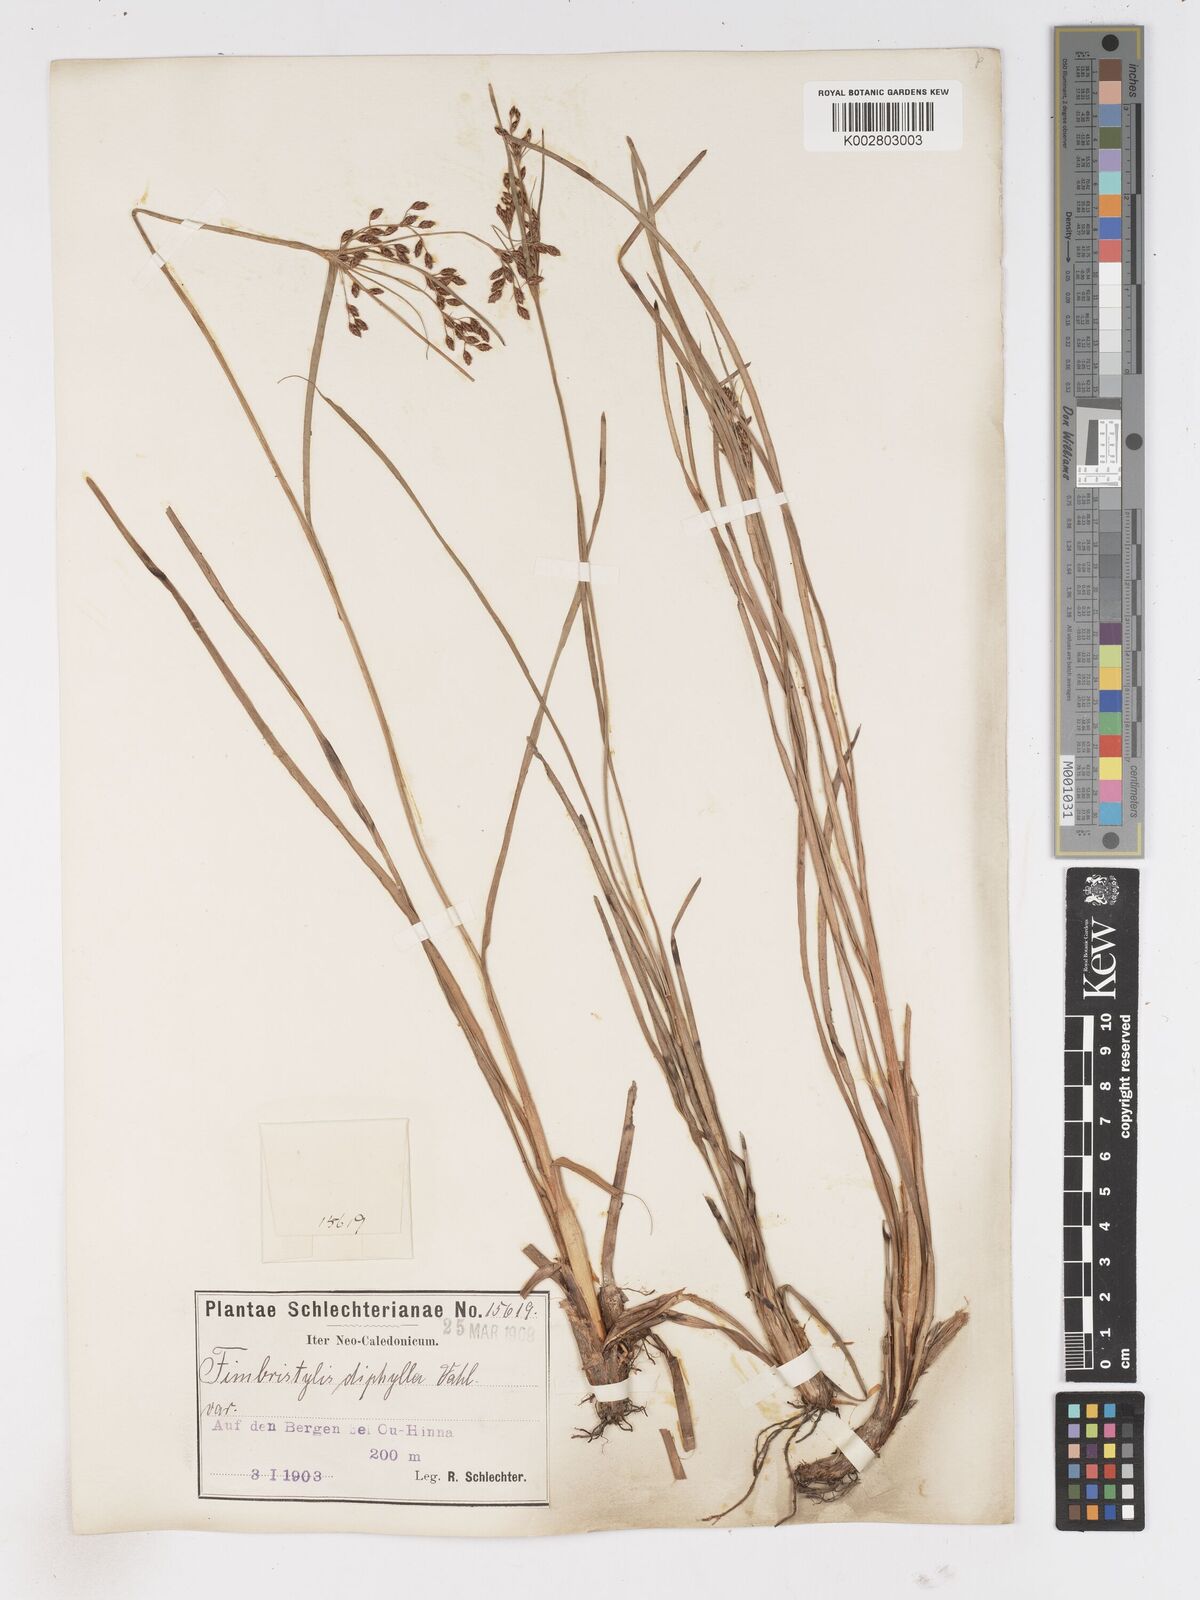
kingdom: Plantae
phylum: Tracheophyta
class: Liliopsida
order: Poales
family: Cyperaceae
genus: Fimbristylis
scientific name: Fimbristylis dichotoma
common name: Forked fimbry
